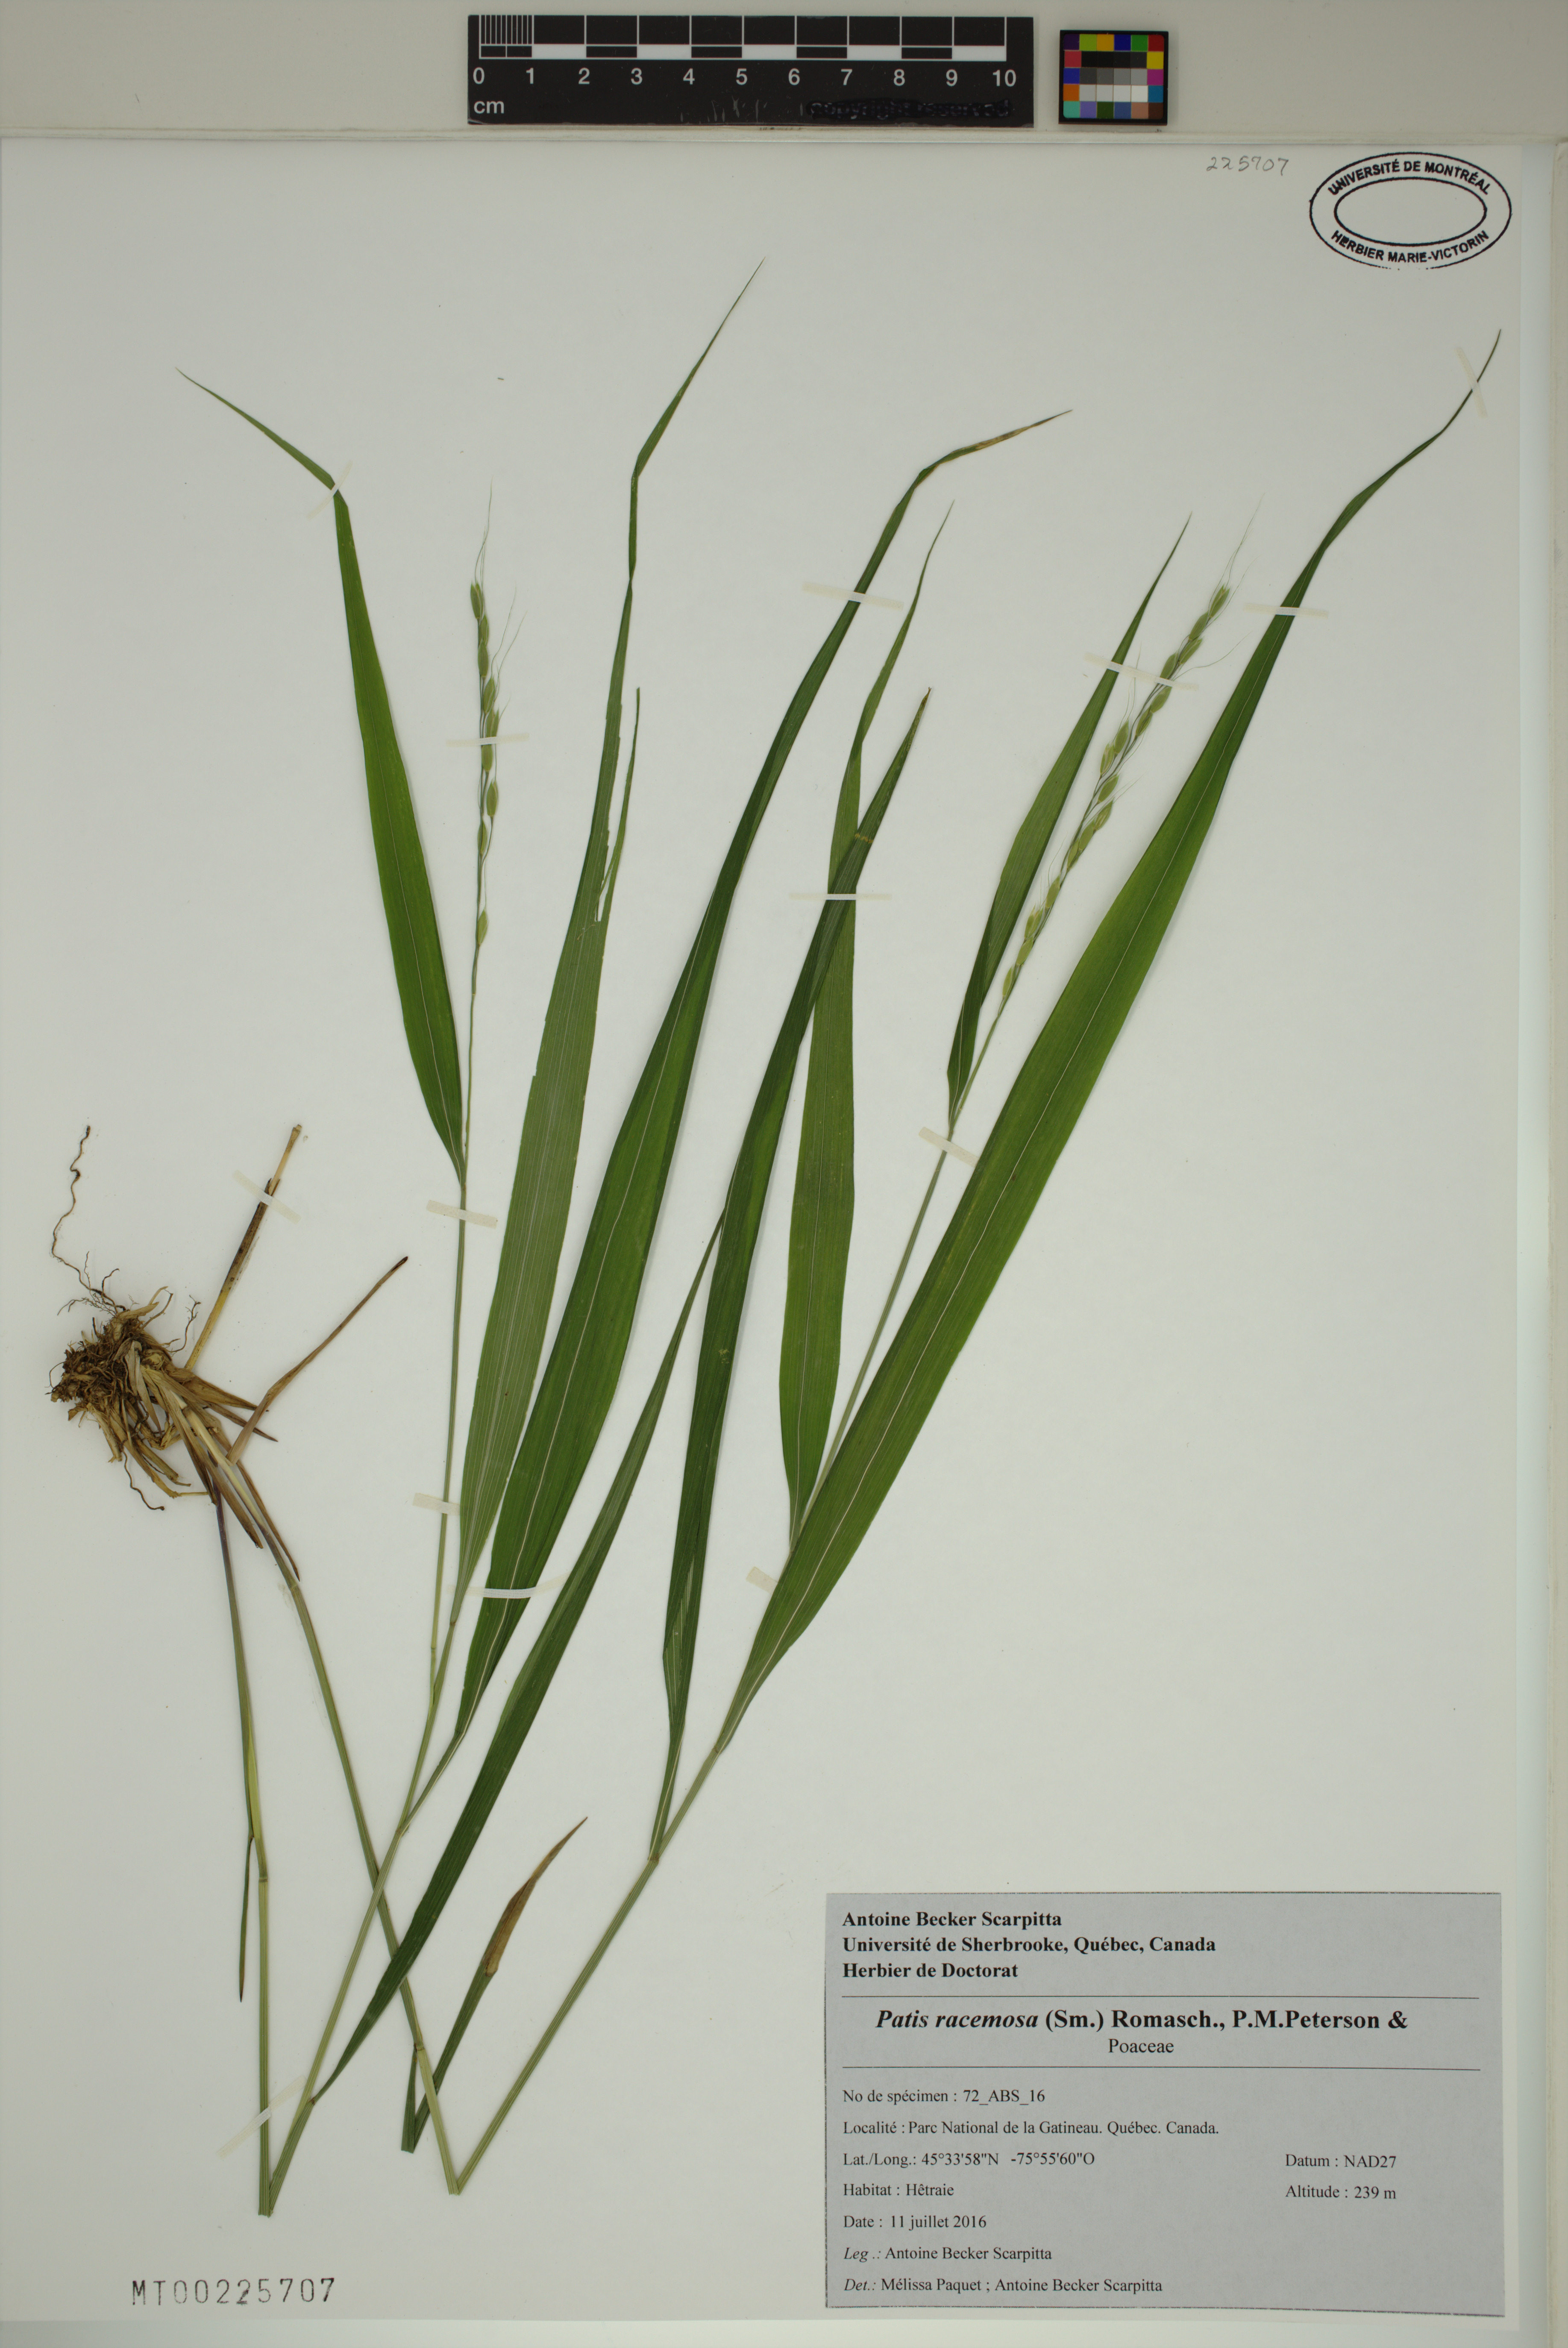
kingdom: Plantae
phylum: Tracheophyta
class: Liliopsida
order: Poales
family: Poaceae
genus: Patis
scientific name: Patis racemosa
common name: Black-fruited mountain rice
